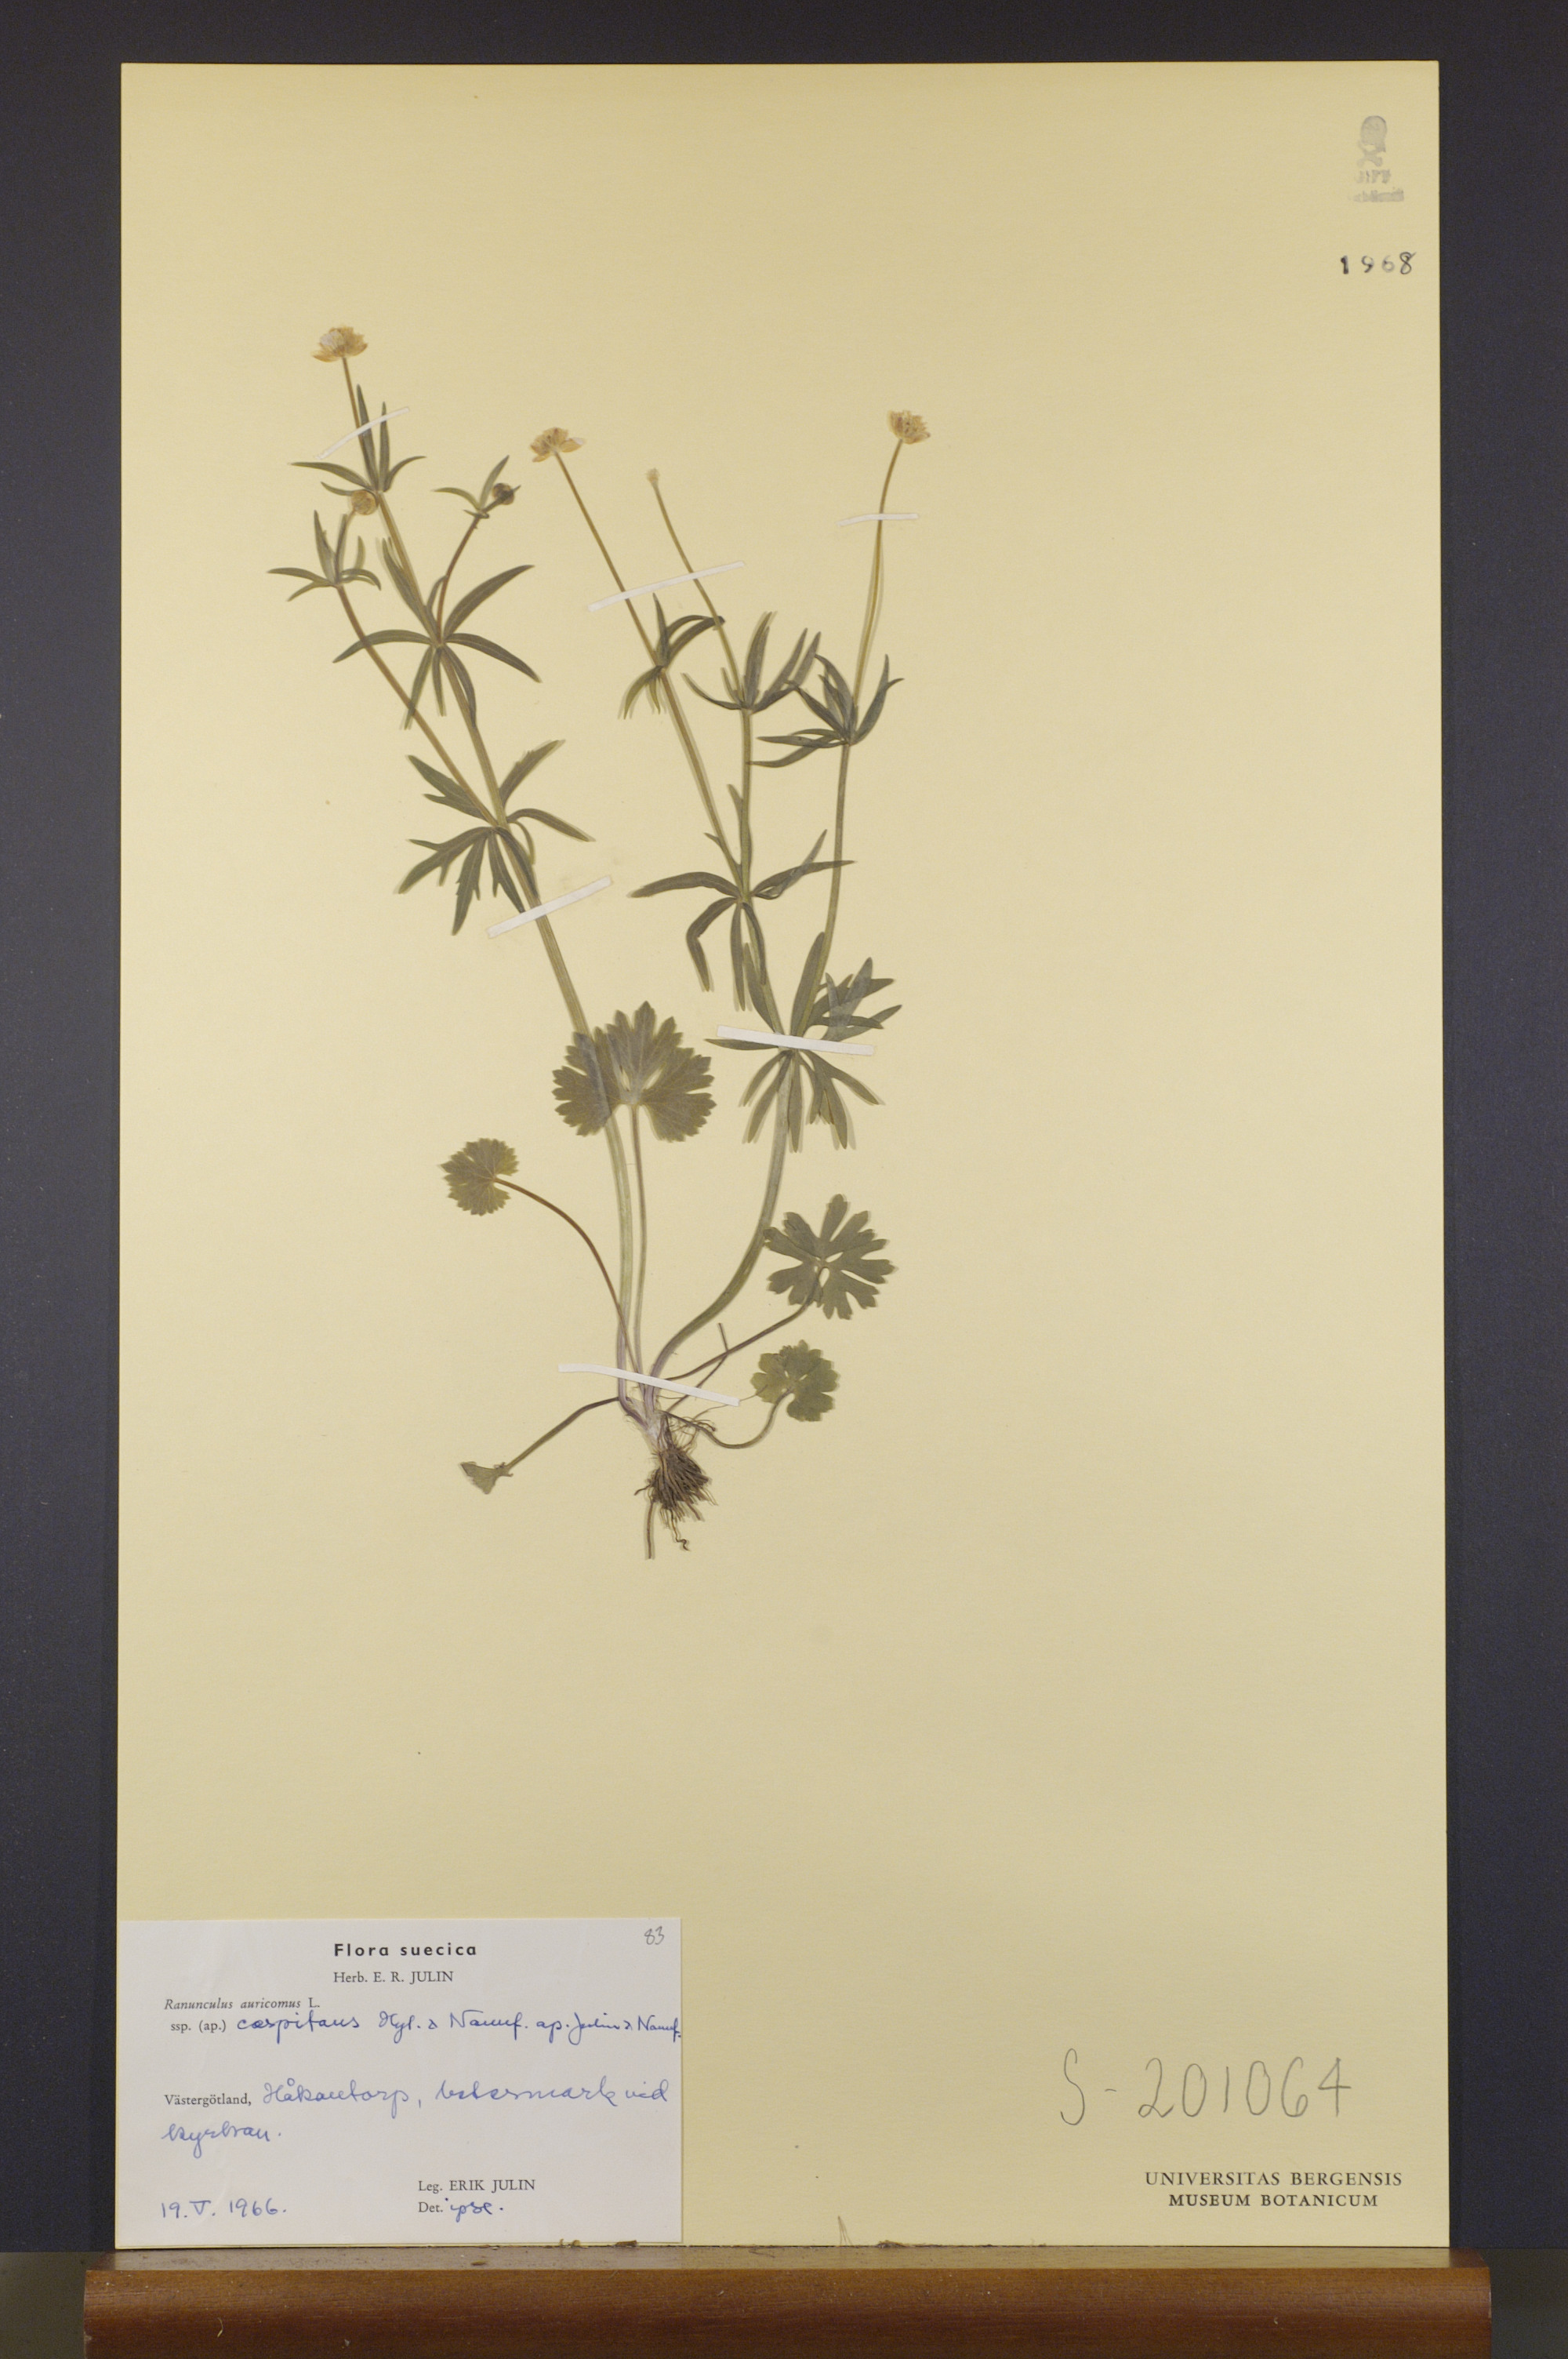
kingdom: Plantae
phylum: Tracheophyta
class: Magnoliopsida
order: Ranunculales
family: Ranunculaceae
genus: Ranunculus
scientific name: Ranunculus caespitans
